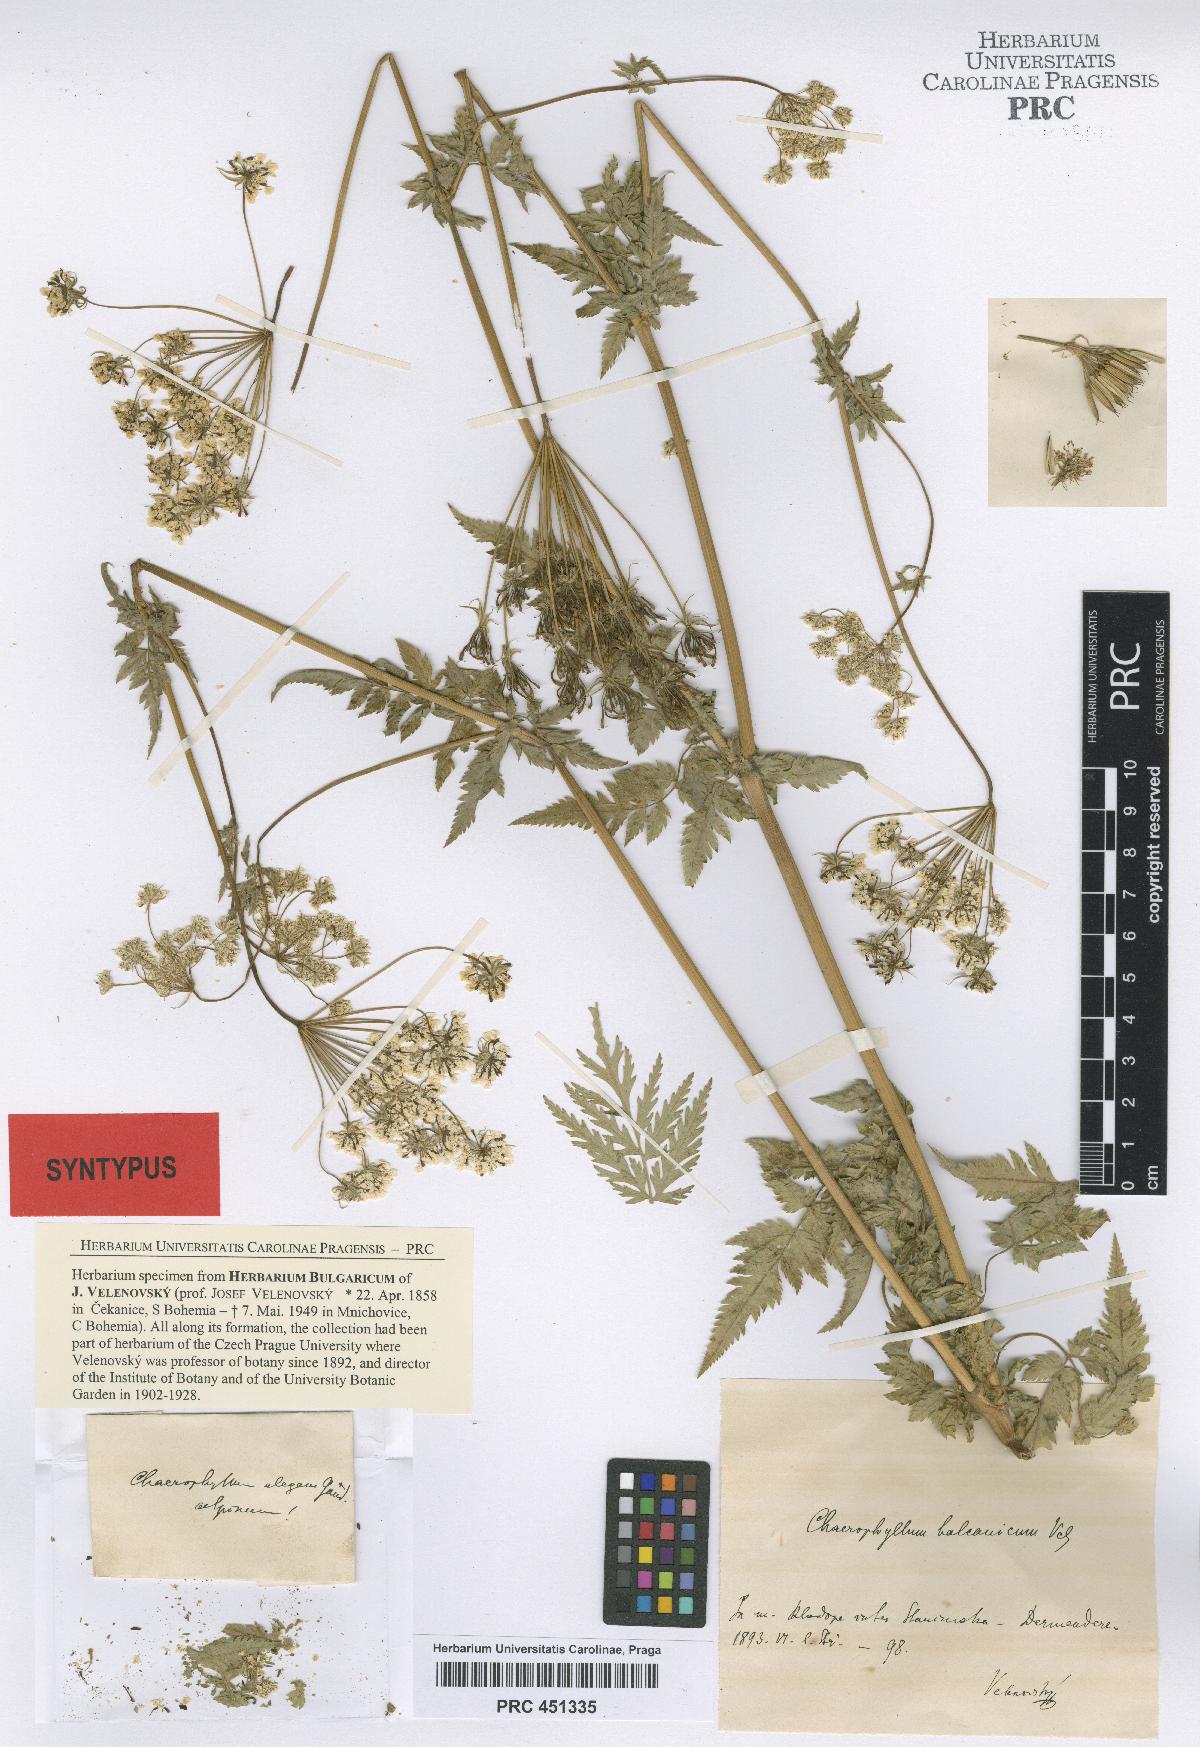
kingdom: Plantae
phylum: Tracheophyta
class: Magnoliopsida
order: Apiales
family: Apiaceae
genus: Geocaryum
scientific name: Geocaryum capillifolium
